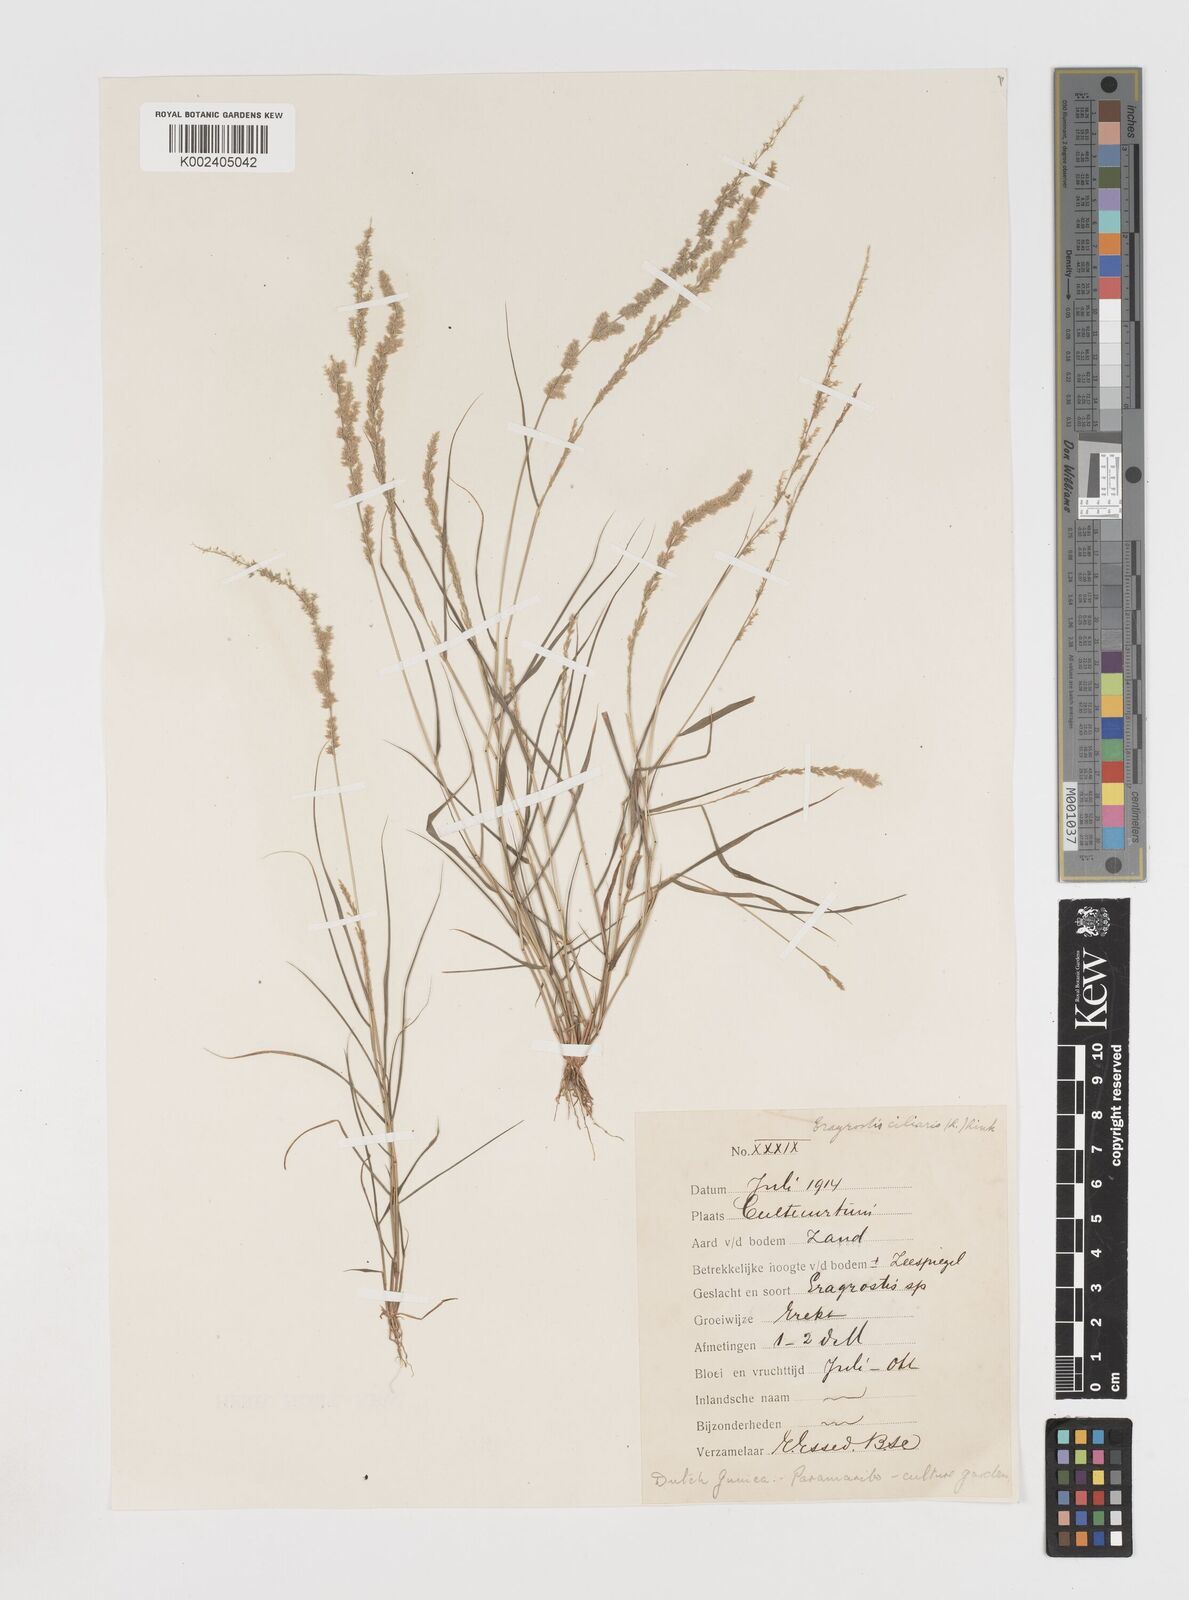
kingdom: Plantae
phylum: Tracheophyta
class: Liliopsida
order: Poales
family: Poaceae
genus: Eragrostis
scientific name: Eragrostis ciliaris
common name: Gophertail lovegrass
